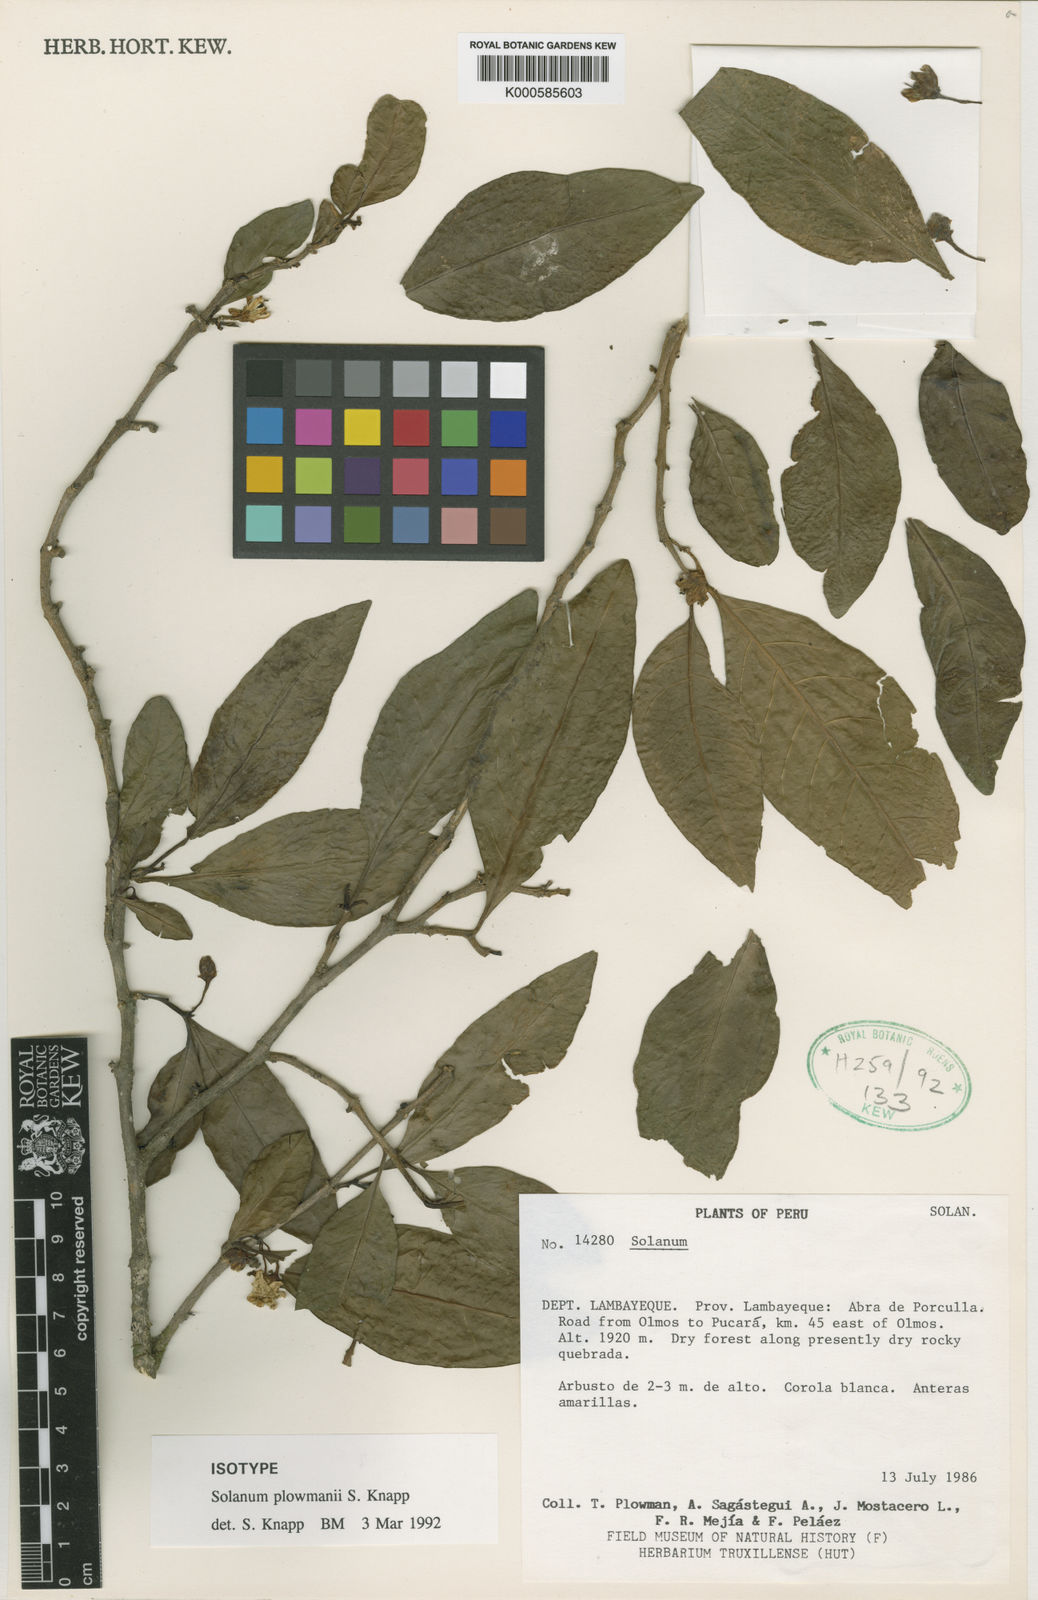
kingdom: Plantae
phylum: Tracheophyta
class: Magnoliopsida
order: Solanales
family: Solanaceae
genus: Solanum
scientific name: Solanum plowmanii
